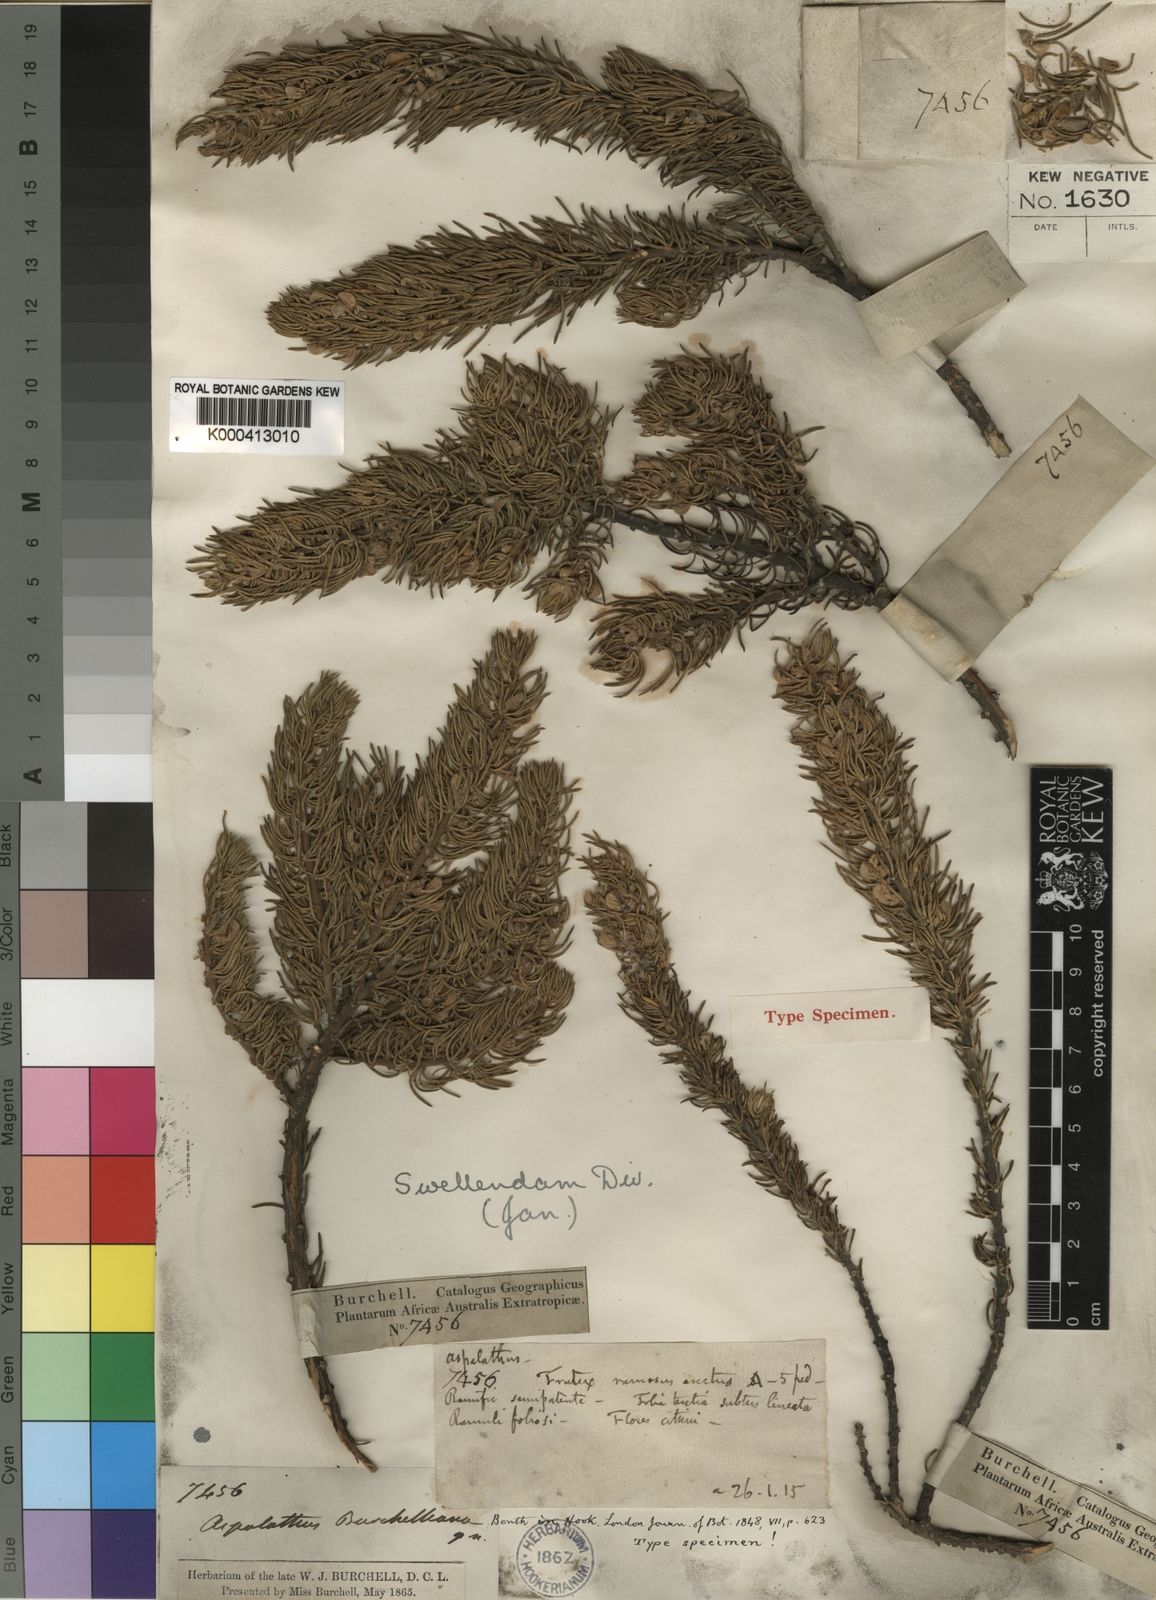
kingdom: Plantae
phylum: Tracheophyta
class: Magnoliopsida
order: Fabales
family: Fabaceae
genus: Aspalathus
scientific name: Aspalathus burchelliana
